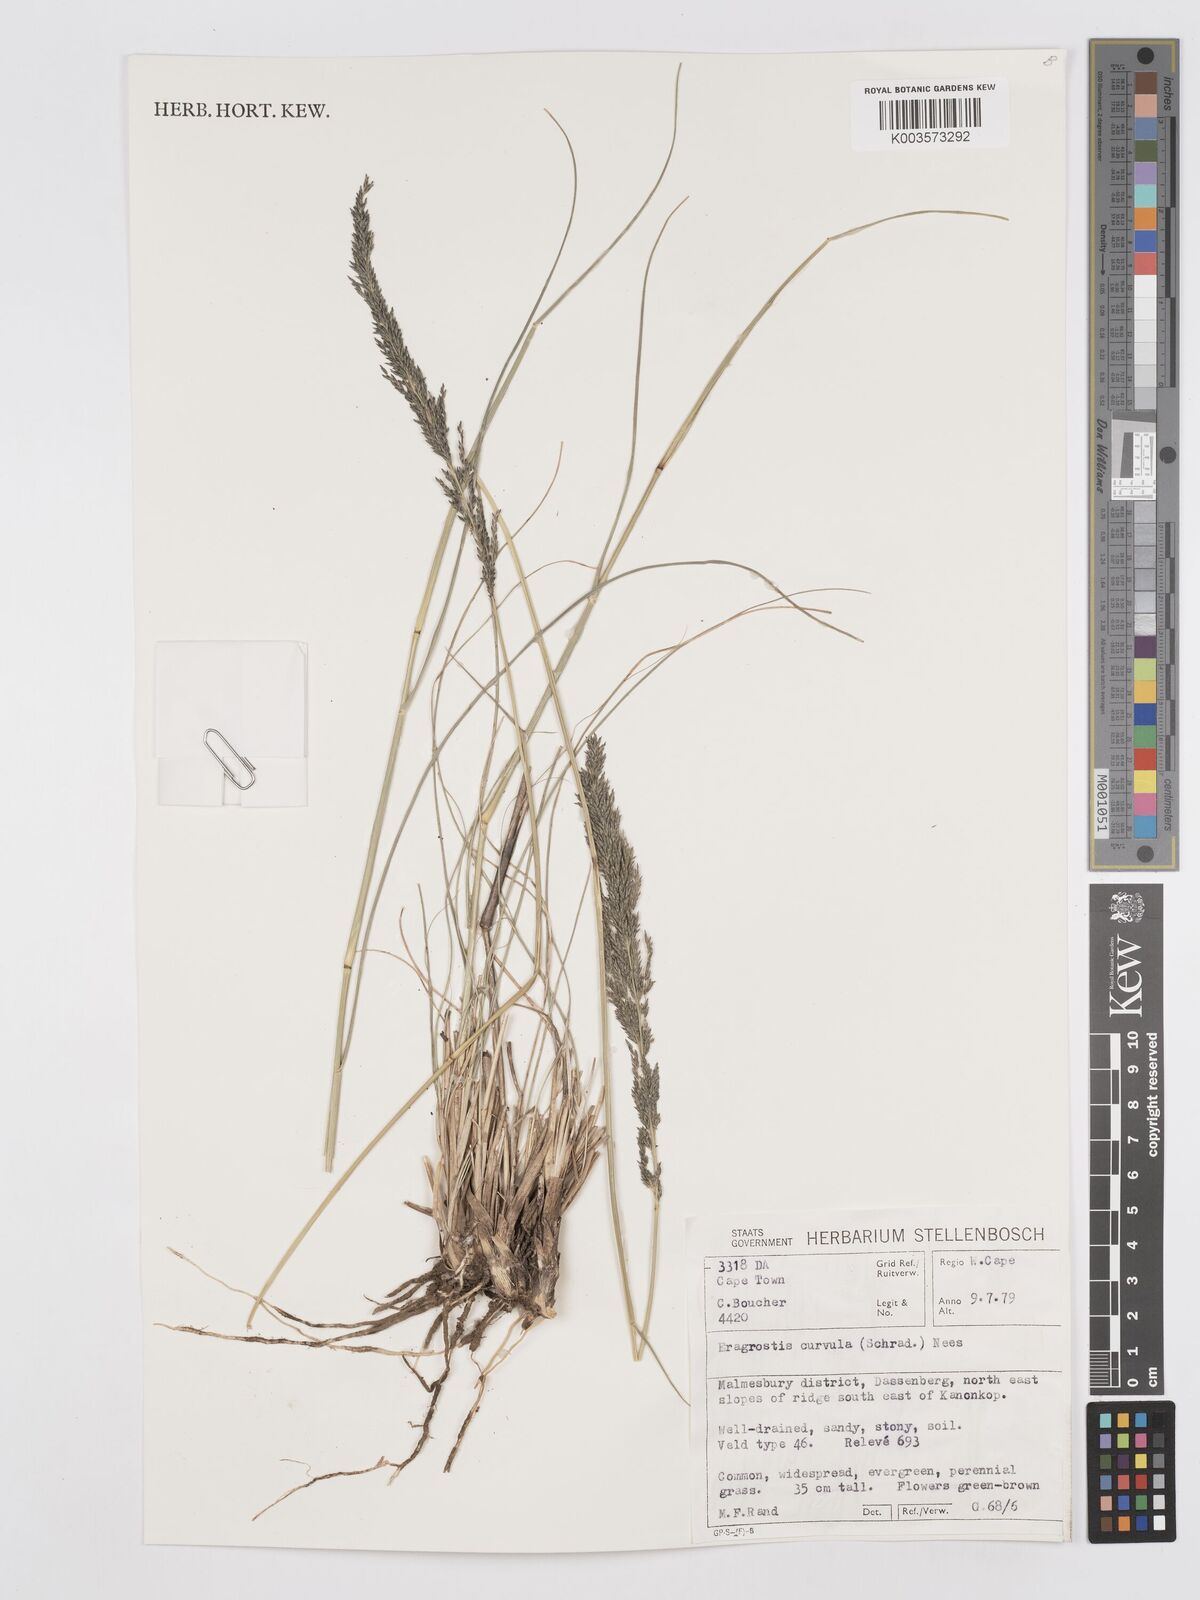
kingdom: Plantae
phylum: Tracheophyta
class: Liliopsida
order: Poales
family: Poaceae
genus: Eragrostis
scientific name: Eragrostis curvula
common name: African love-grass
